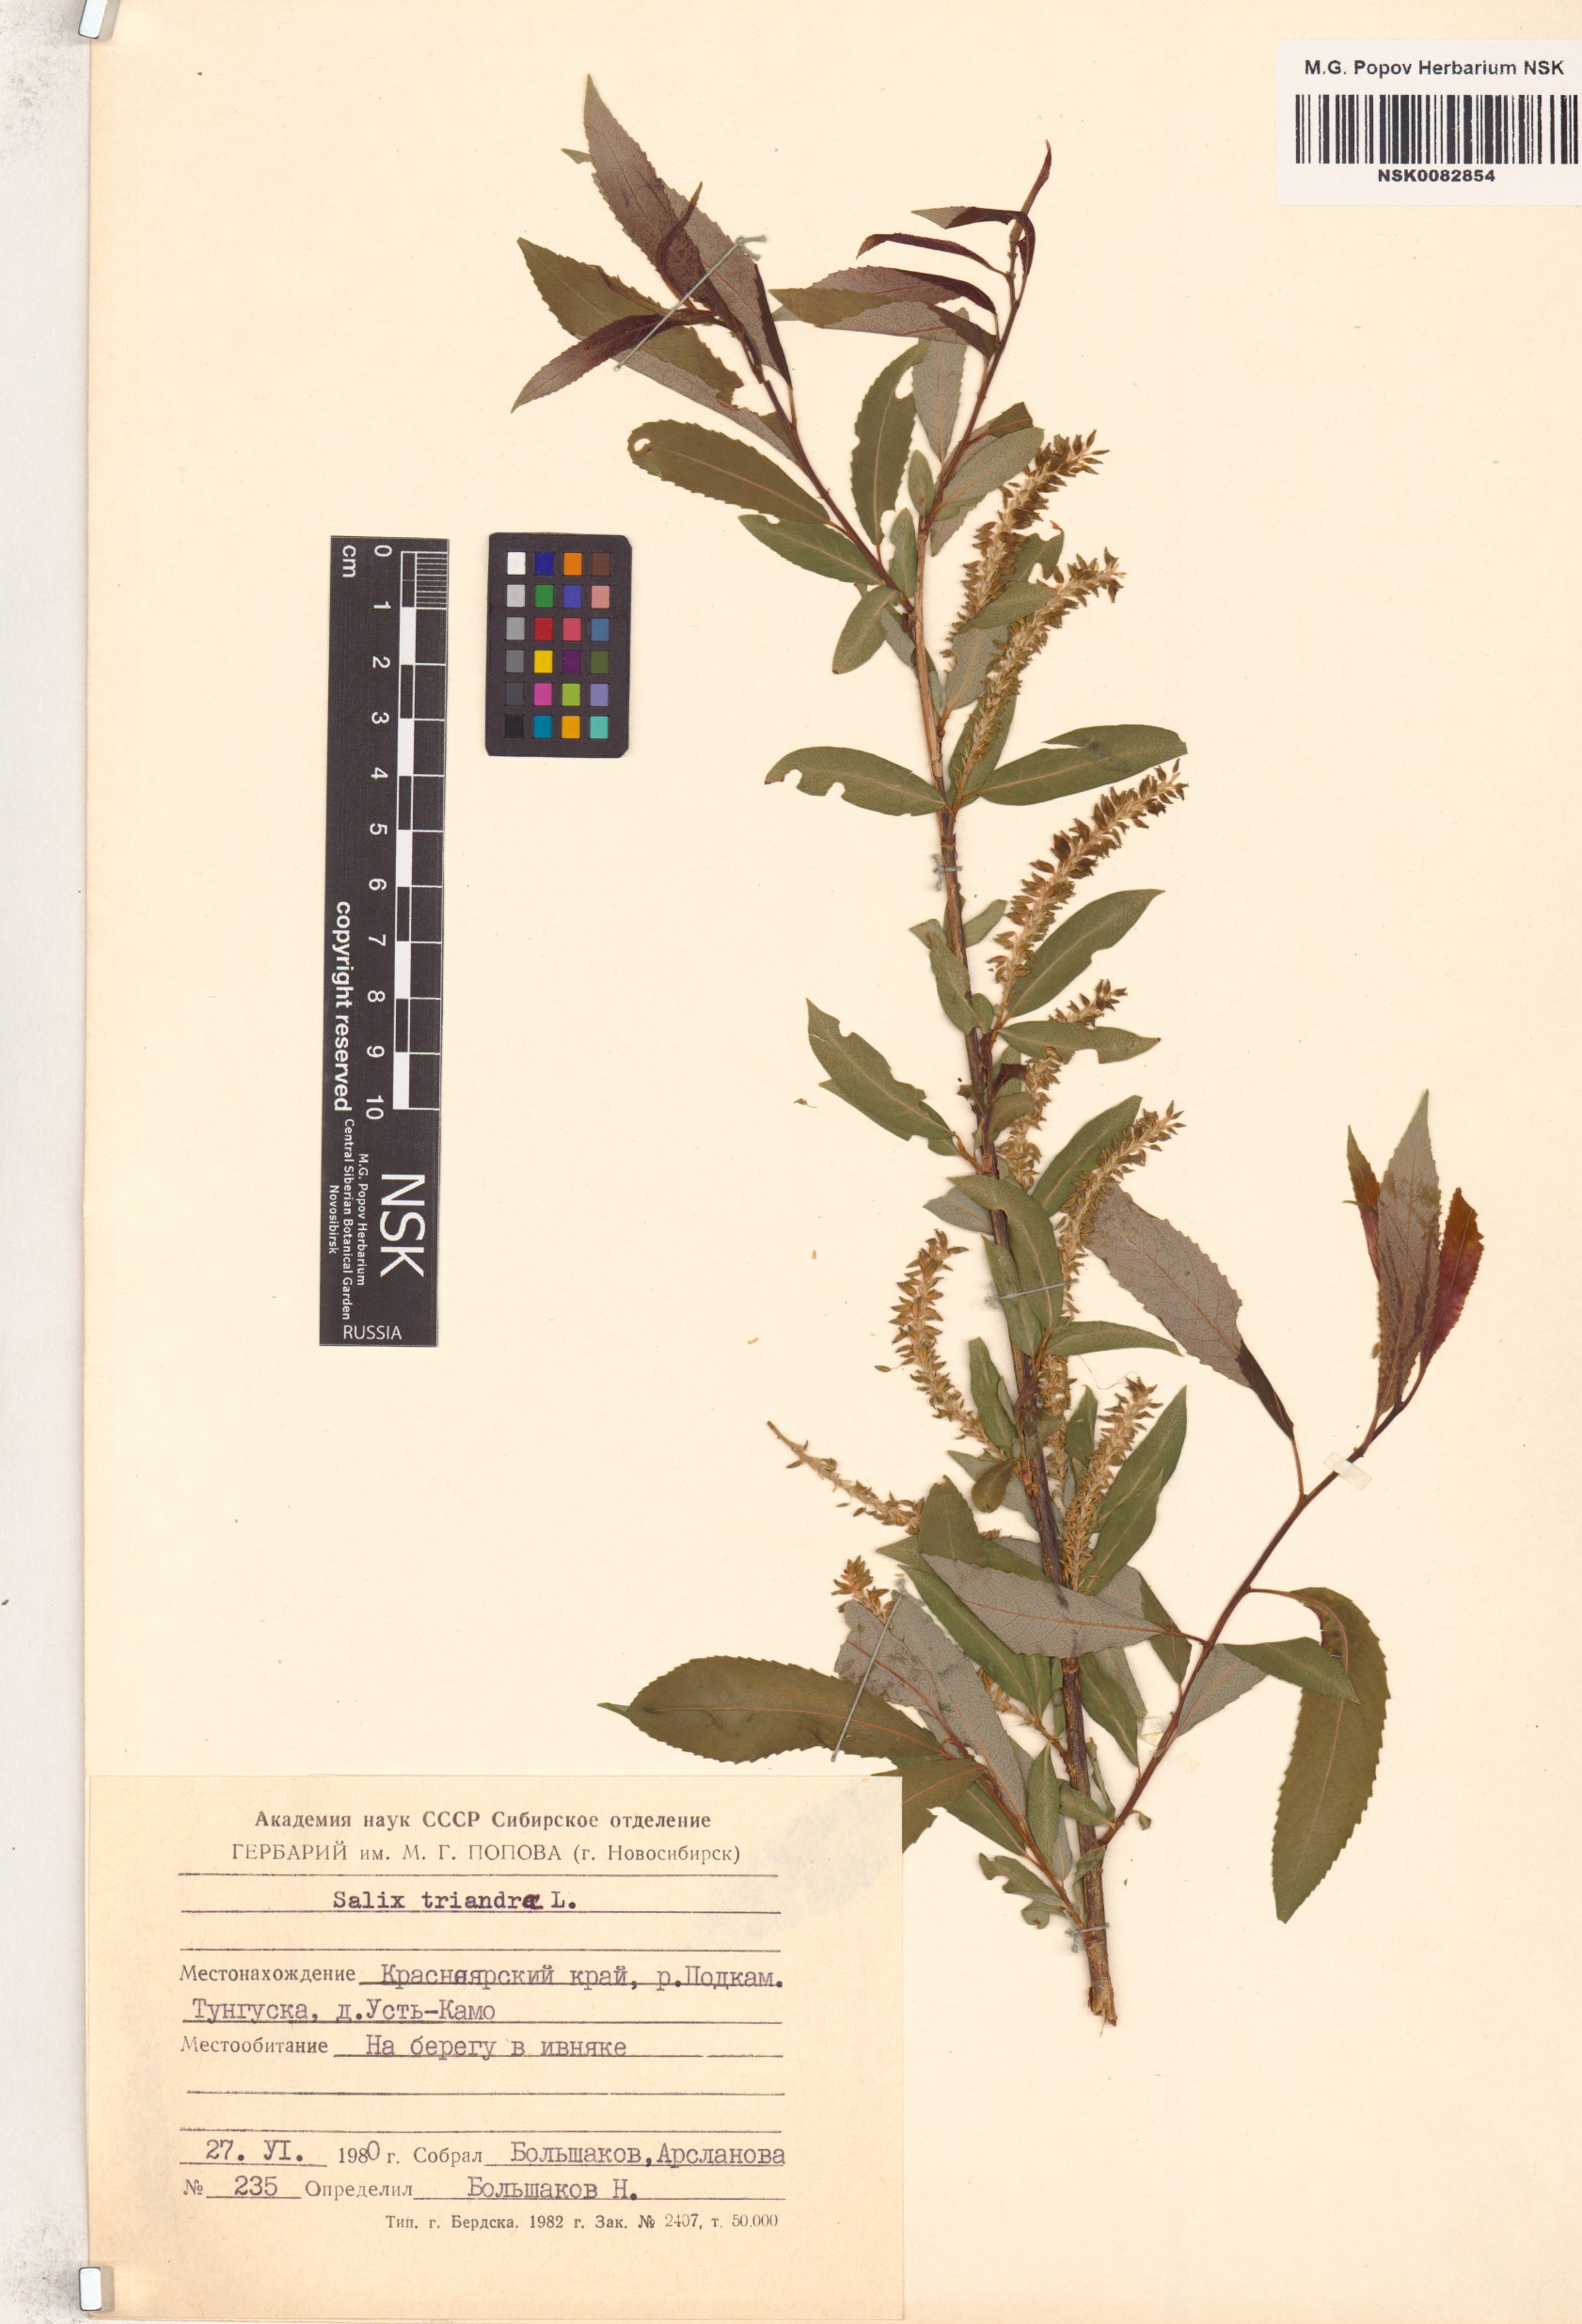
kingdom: Plantae
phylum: Tracheophyta
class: Magnoliopsida
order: Malpighiales
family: Salicaceae
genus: Salix
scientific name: Salix triandra
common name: Almond willow
